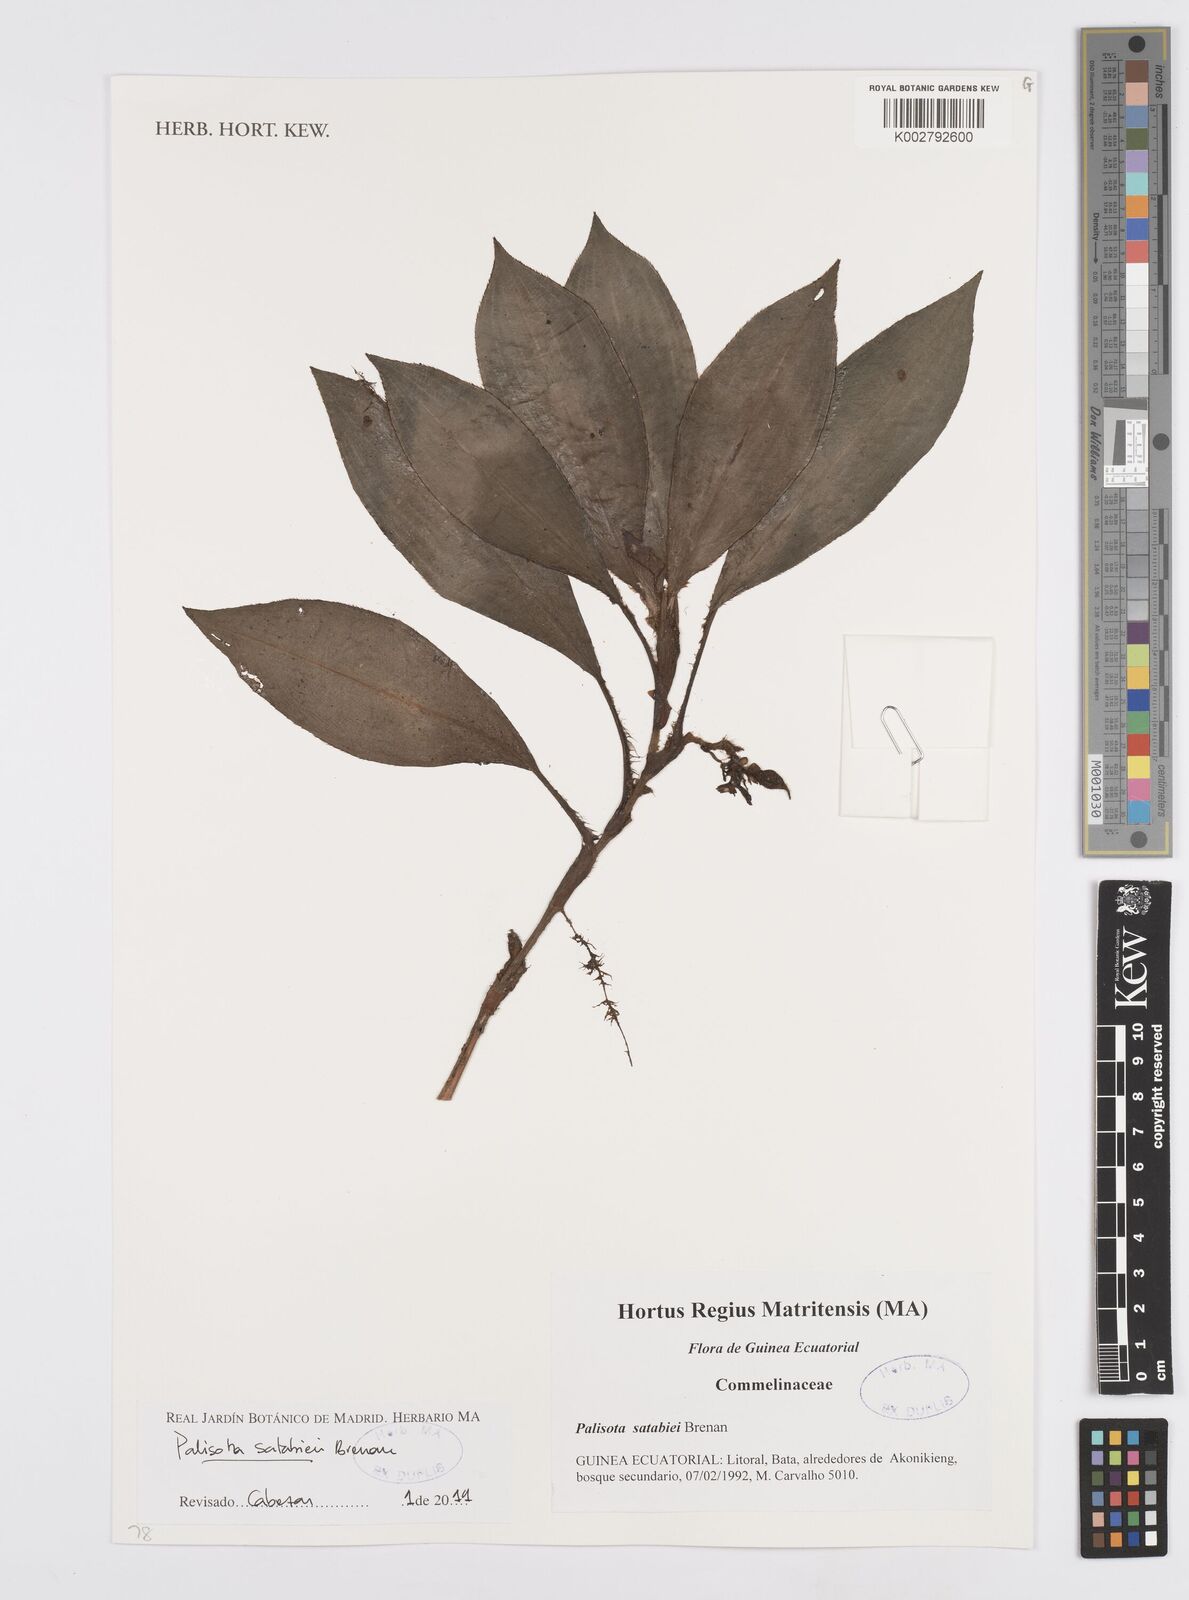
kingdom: Plantae
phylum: Tracheophyta
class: Liliopsida
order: Commelinales
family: Commelinaceae
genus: Palisota
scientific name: Palisota satabiei
